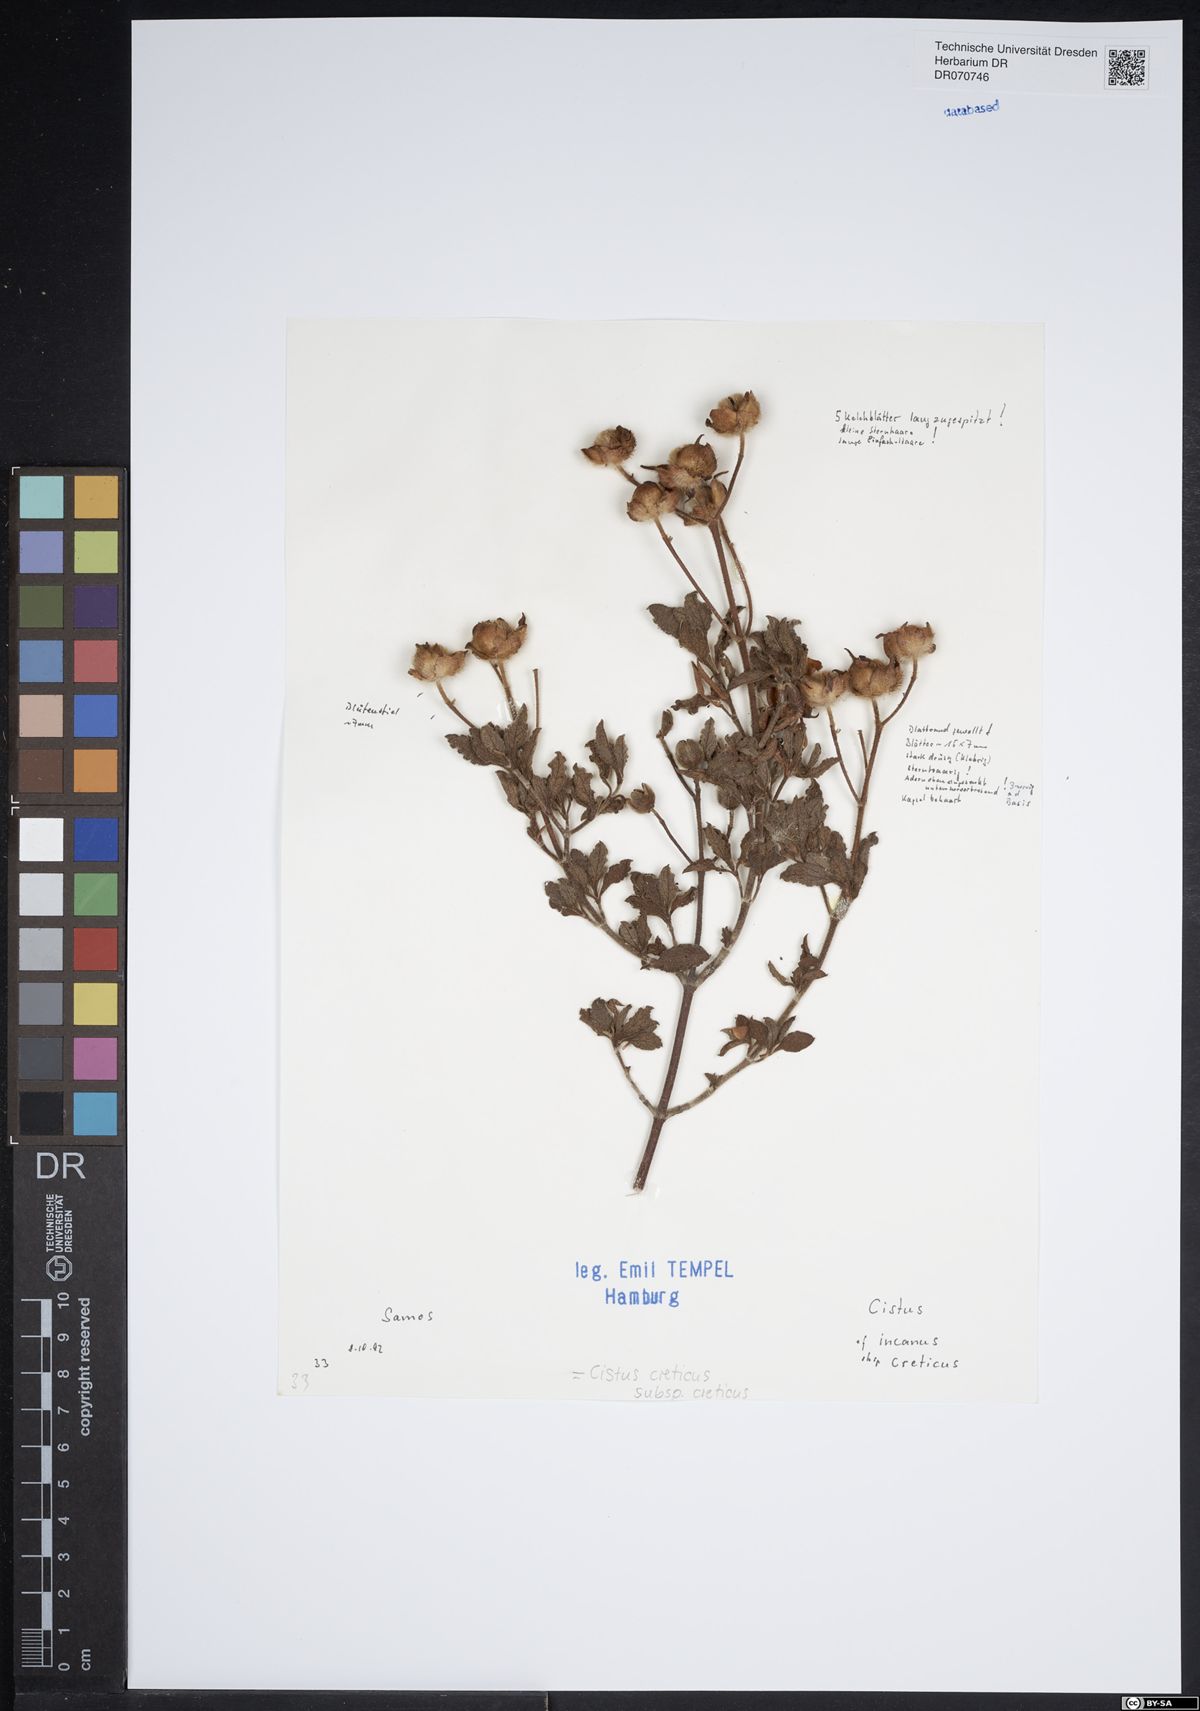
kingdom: Plantae
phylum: Tracheophyta
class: Magnoliopsida
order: Malvales
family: Cistaceae
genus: Cistus
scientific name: Cistus creticus
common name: Cretan rockrose
